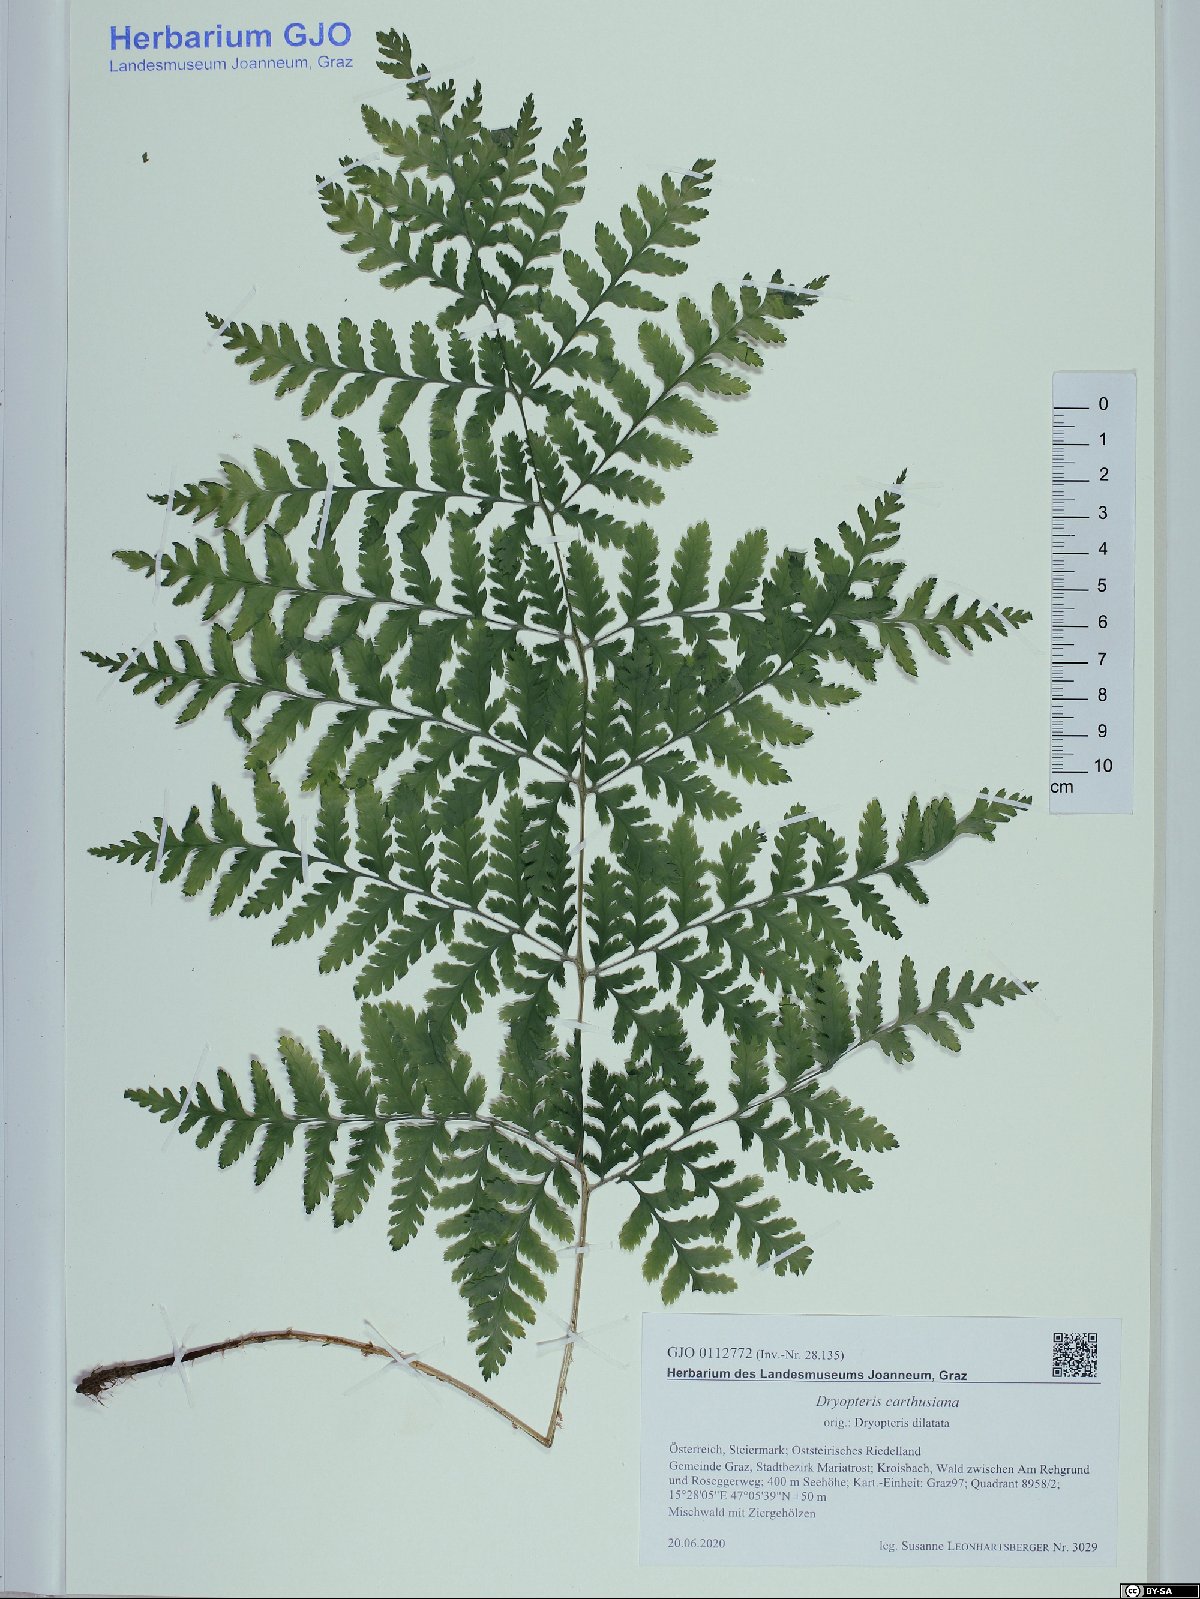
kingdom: Plantae
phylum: Tracheophyta
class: Polypodiopsida
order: Polypodiales
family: Dryopteridaceae
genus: Dryopteris
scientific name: Dryopteris carthusiana
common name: Narrow buckler-fern
